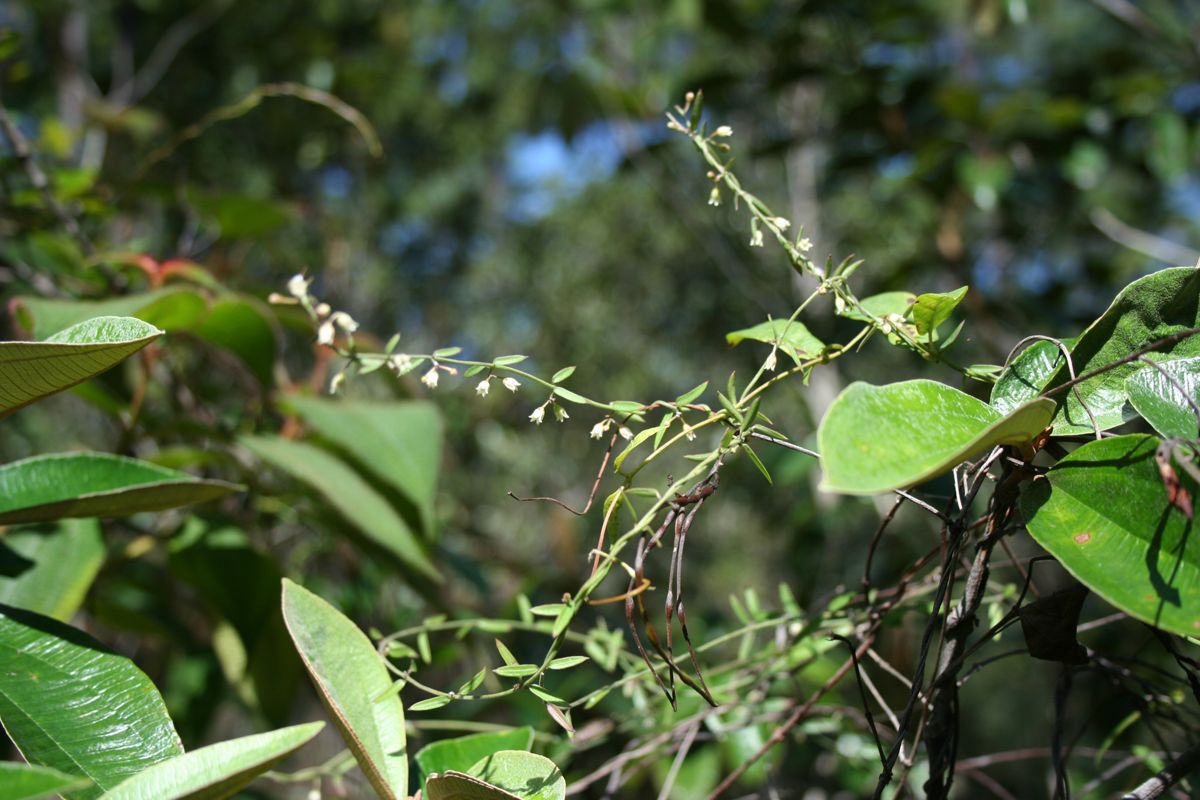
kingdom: Plantae
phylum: Tracheophyta
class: Magnoliopsida
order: Gentianales
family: Apocynaceae
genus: Metastelma
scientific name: Metastelma arizonicum
